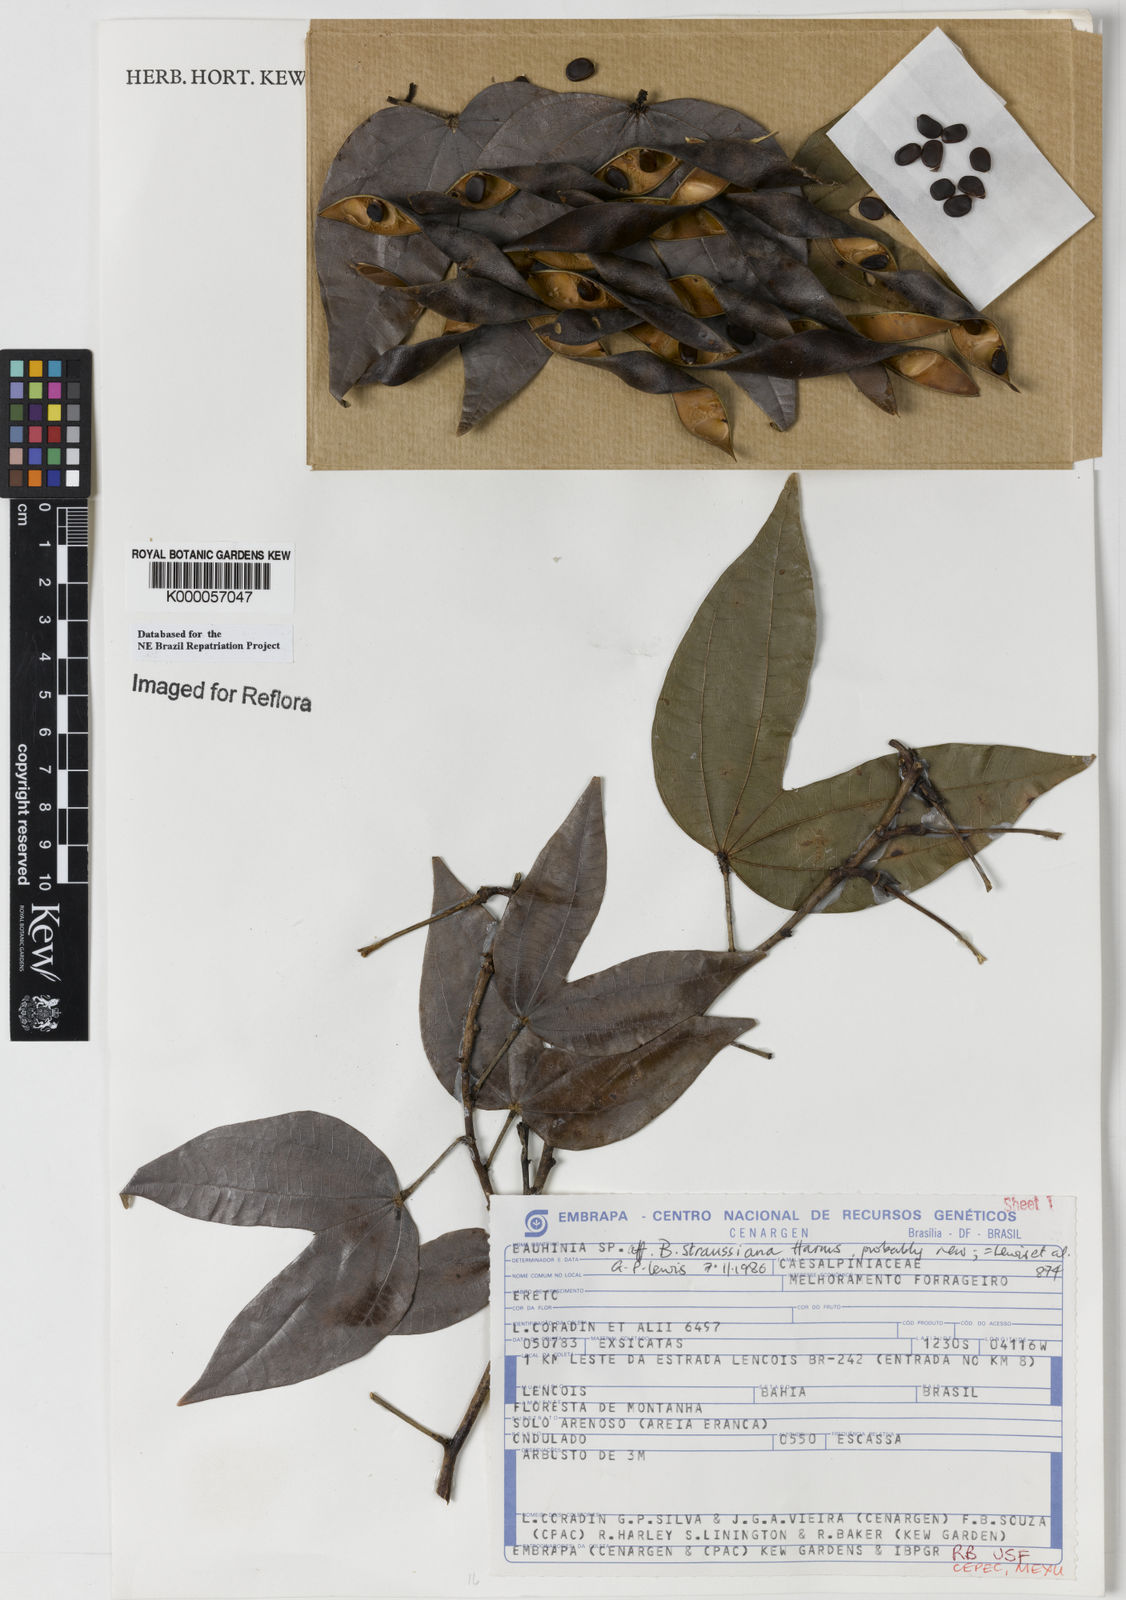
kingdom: Plantae
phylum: Tracheophyta
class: Magnoliopsida
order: Fabales
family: Fabaceae
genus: Bauhinia
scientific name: Bauhinia conwayi
